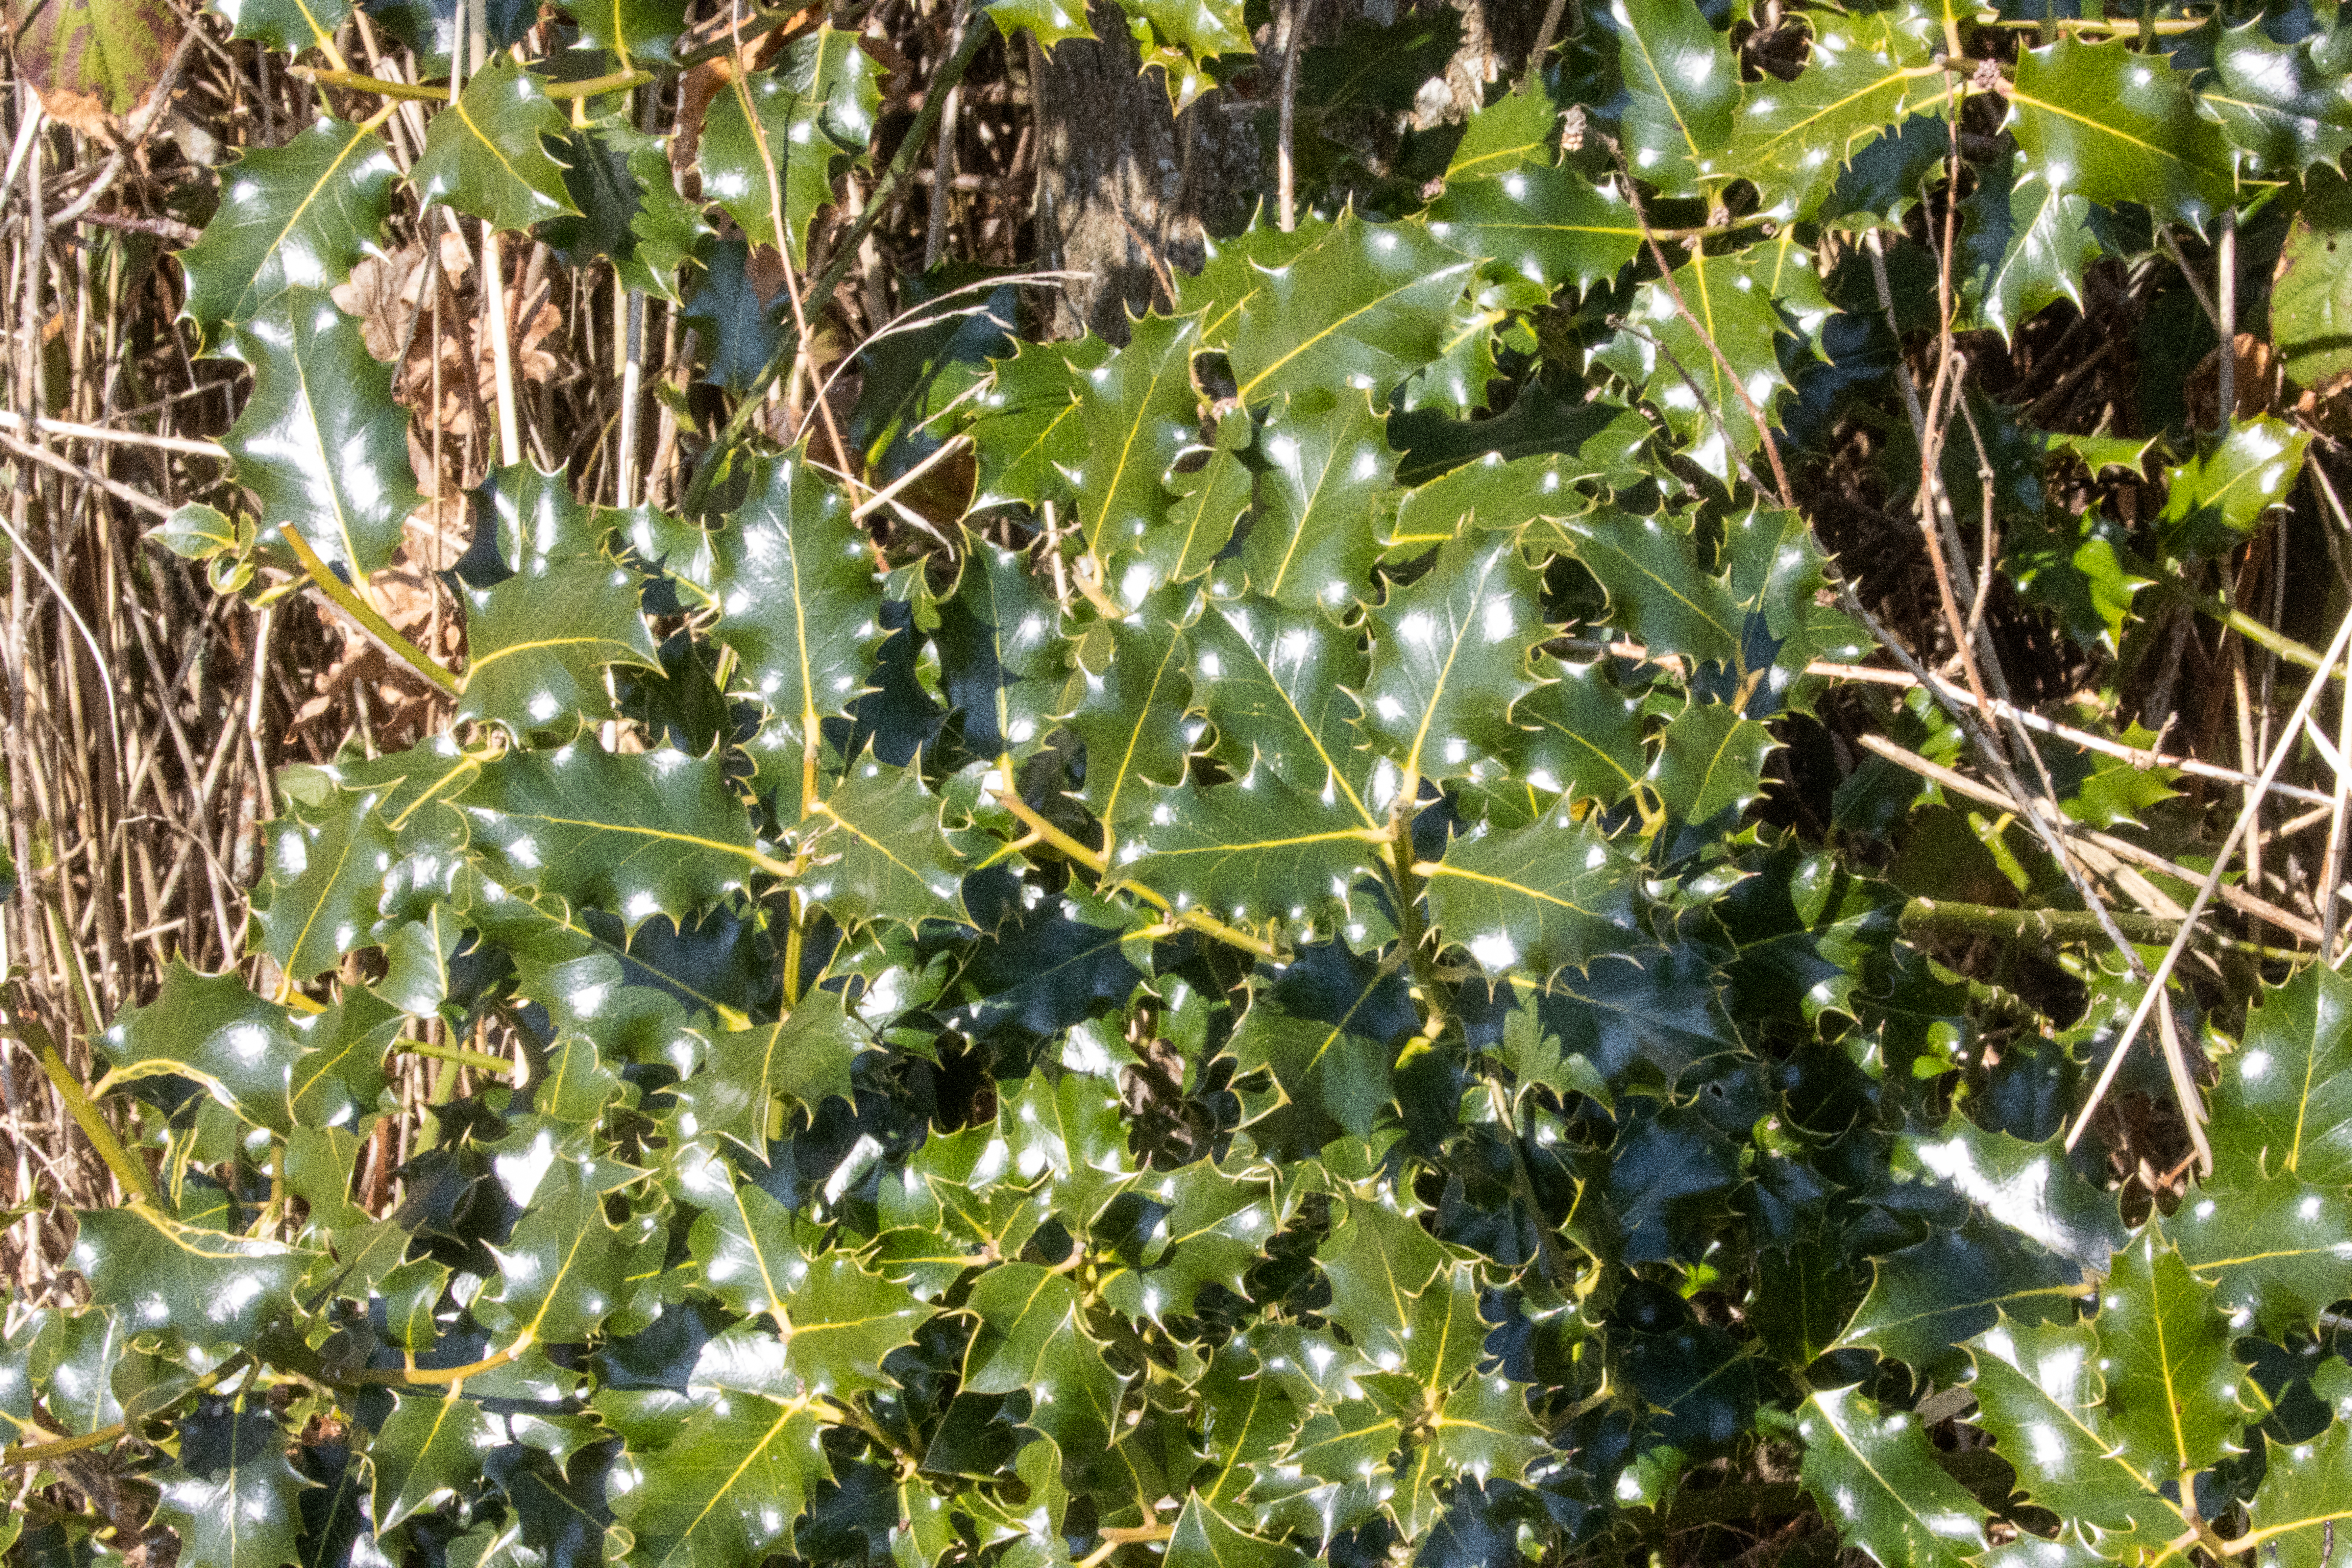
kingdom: Plantae
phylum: Tracheophyta
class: Magnoliopsida
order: Aquifoliales
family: Aquifoliaceae
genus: Ilex
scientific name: Ilex aquifolium
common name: Kristtorn
